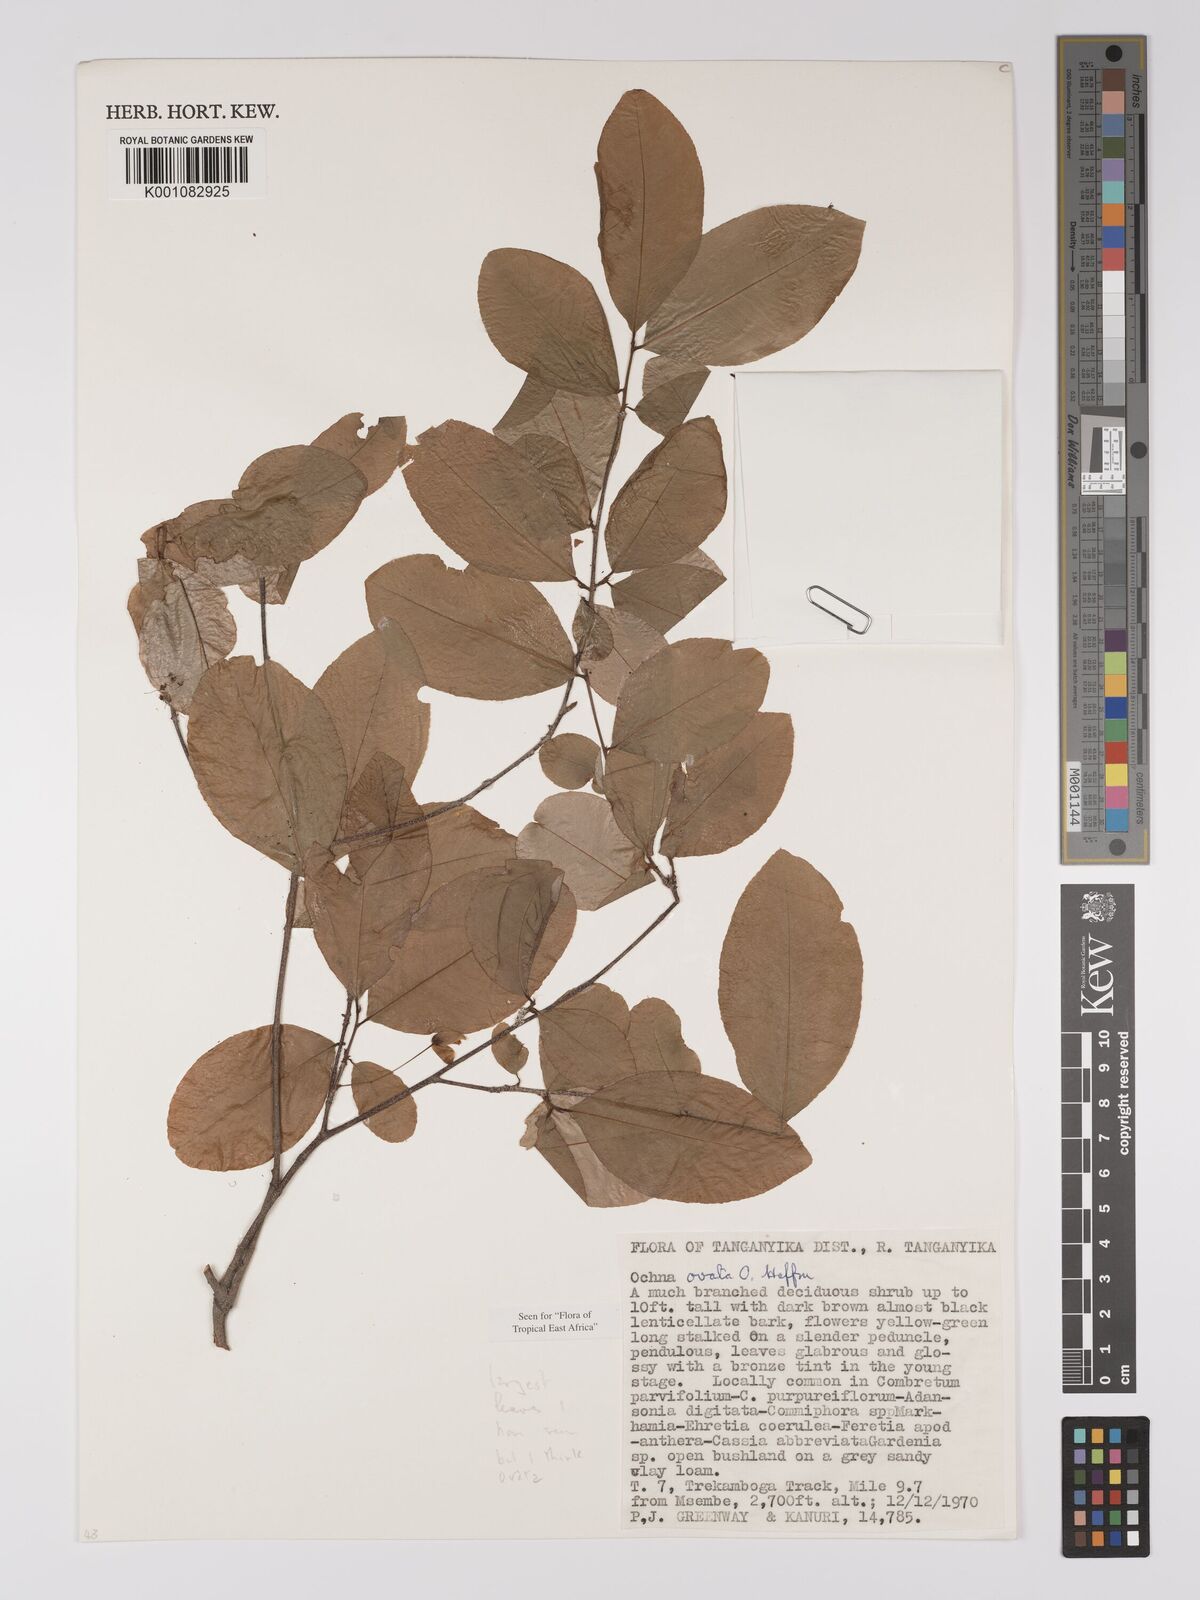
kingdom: Plantae
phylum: Tracheophyta
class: Magnoliopsida
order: Malpighiales
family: Ochnaceae
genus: Ochna
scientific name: Ochna ovata
